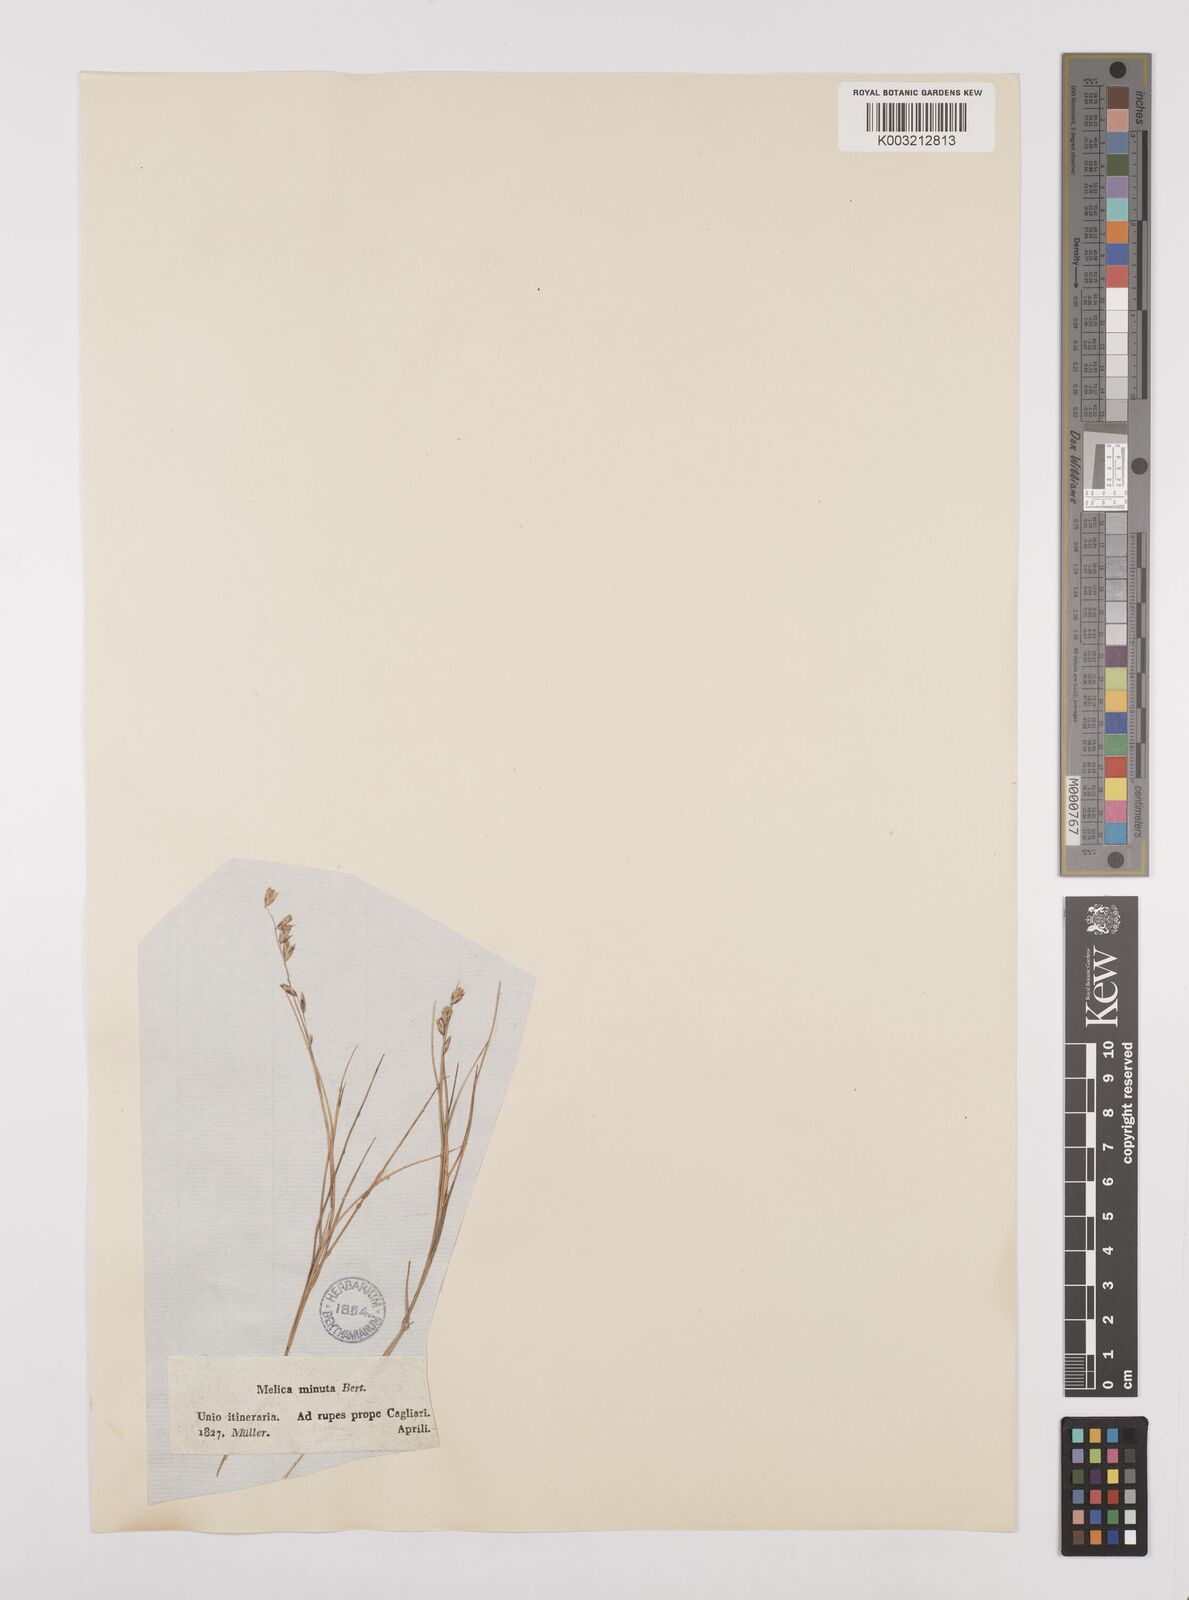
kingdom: Plantae
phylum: Tracheophyta
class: Liliopsida
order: Poales
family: Poaceae
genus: Melica
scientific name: Melica minuta
